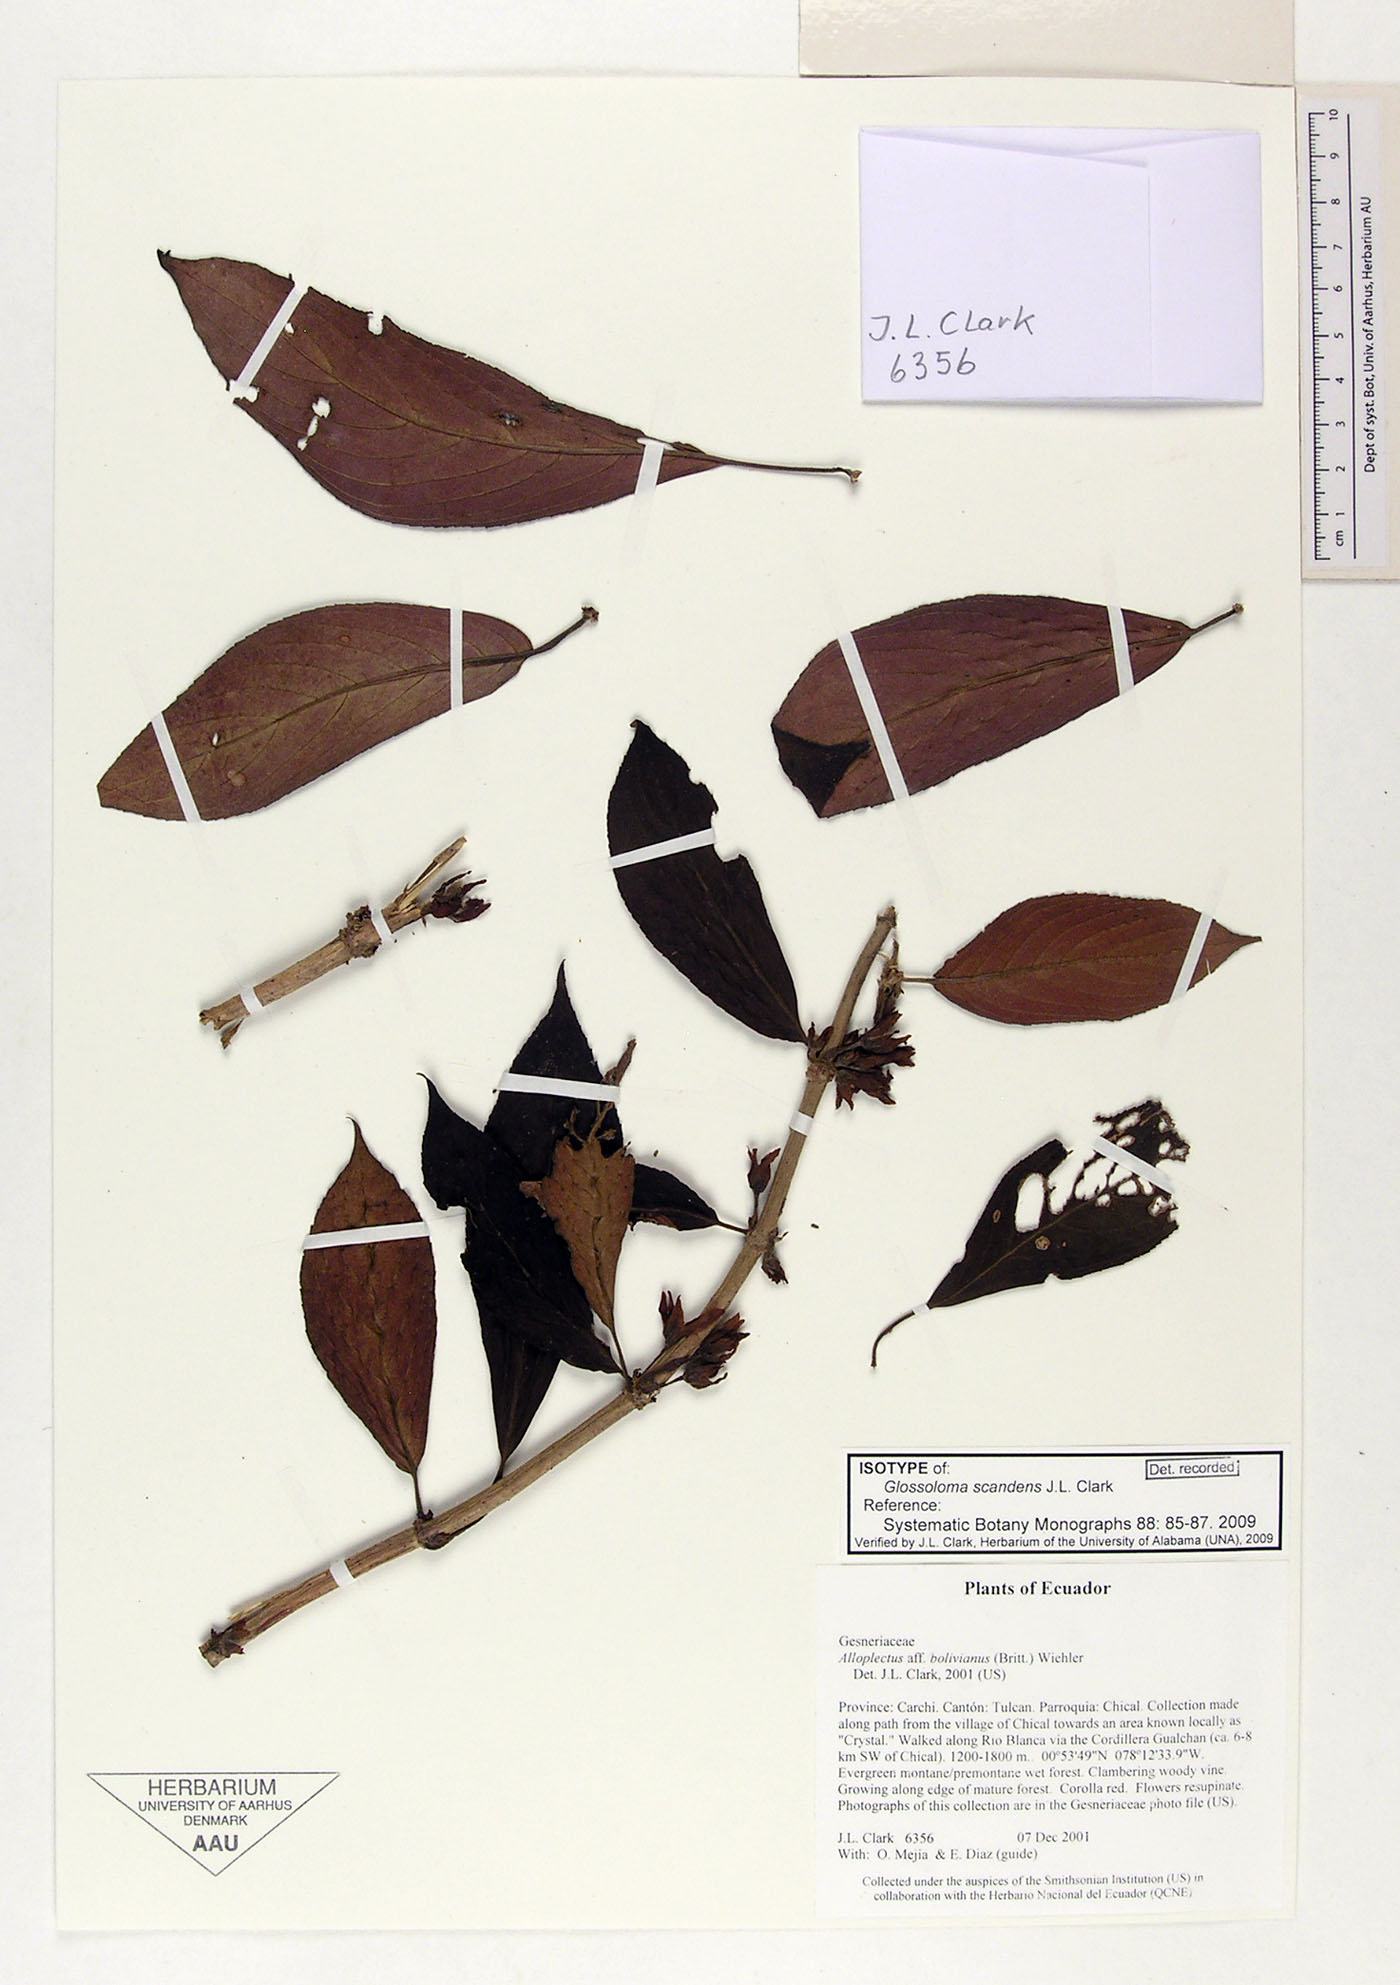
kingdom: Plantae
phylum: Tracheophyta
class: Magnoliopsida
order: Lamiales
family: Gesneriaceae
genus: Glossoloma
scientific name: Glossoloma scandens
